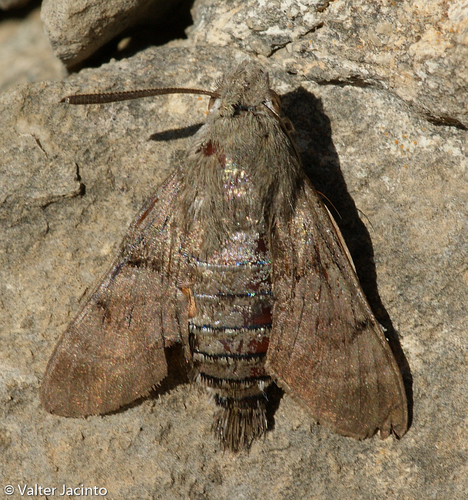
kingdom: Animalia
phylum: Arthropoda
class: Insecta
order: Lepidoptera
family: Sphingidae
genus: Macroglossum
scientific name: Macroglossum stellatarum
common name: Humming-bird hawk-moth
